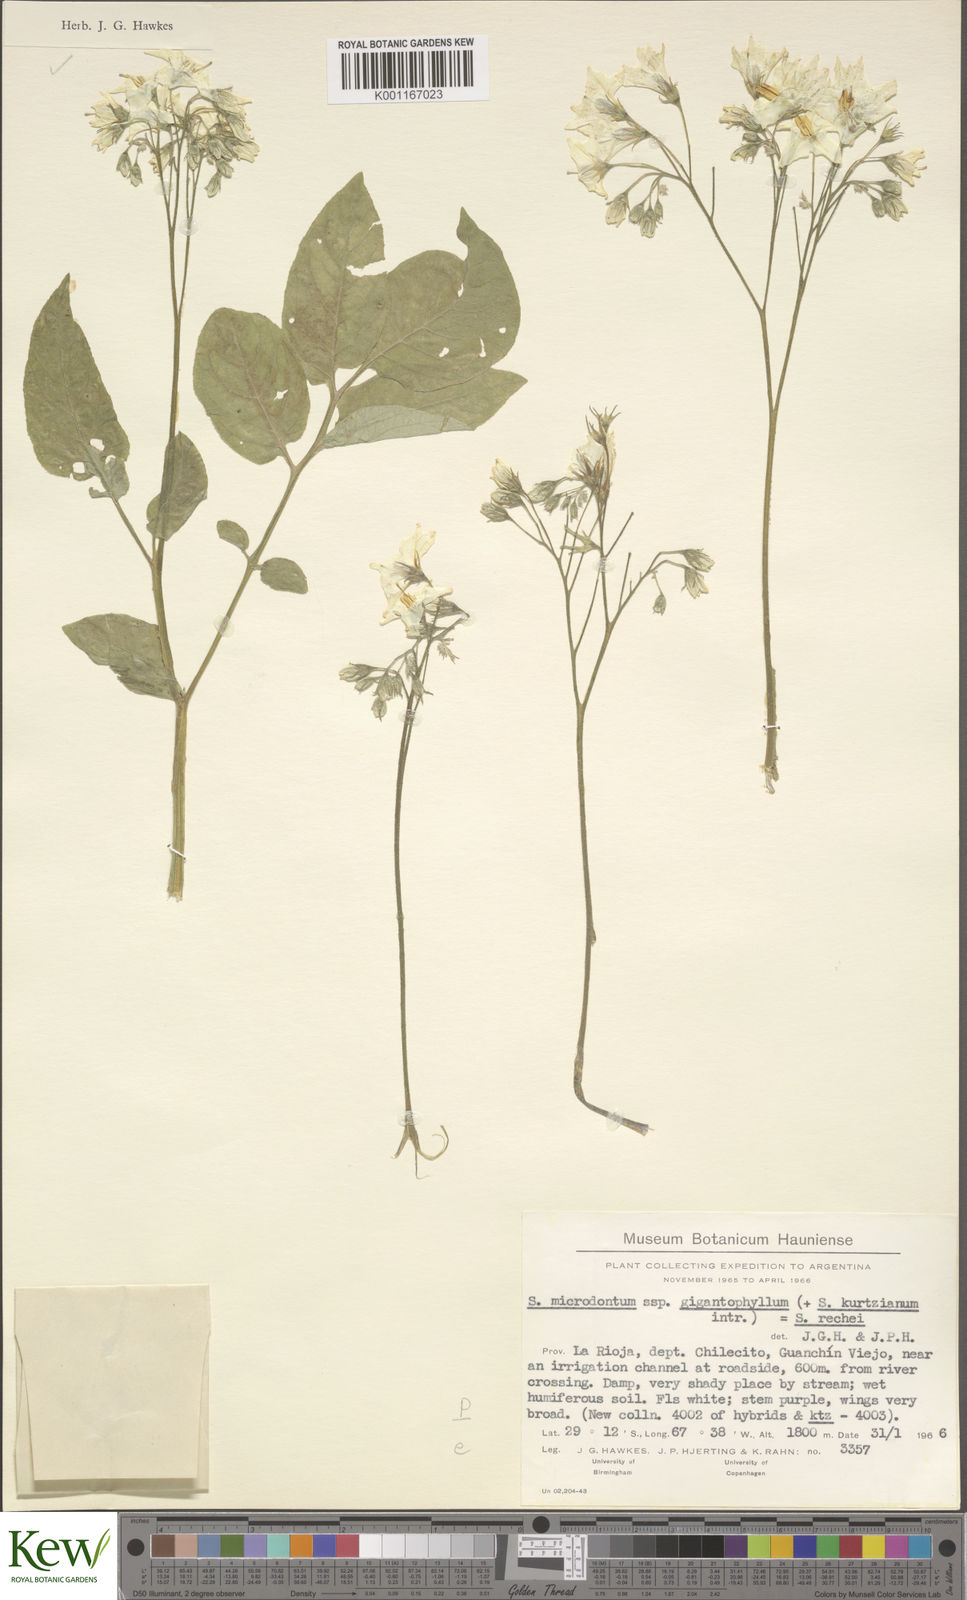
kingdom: Plantae
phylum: Tracheophyta
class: Magnoliopsida
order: Solanales
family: Solanaceae
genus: Solanum
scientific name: Solanum rechei
